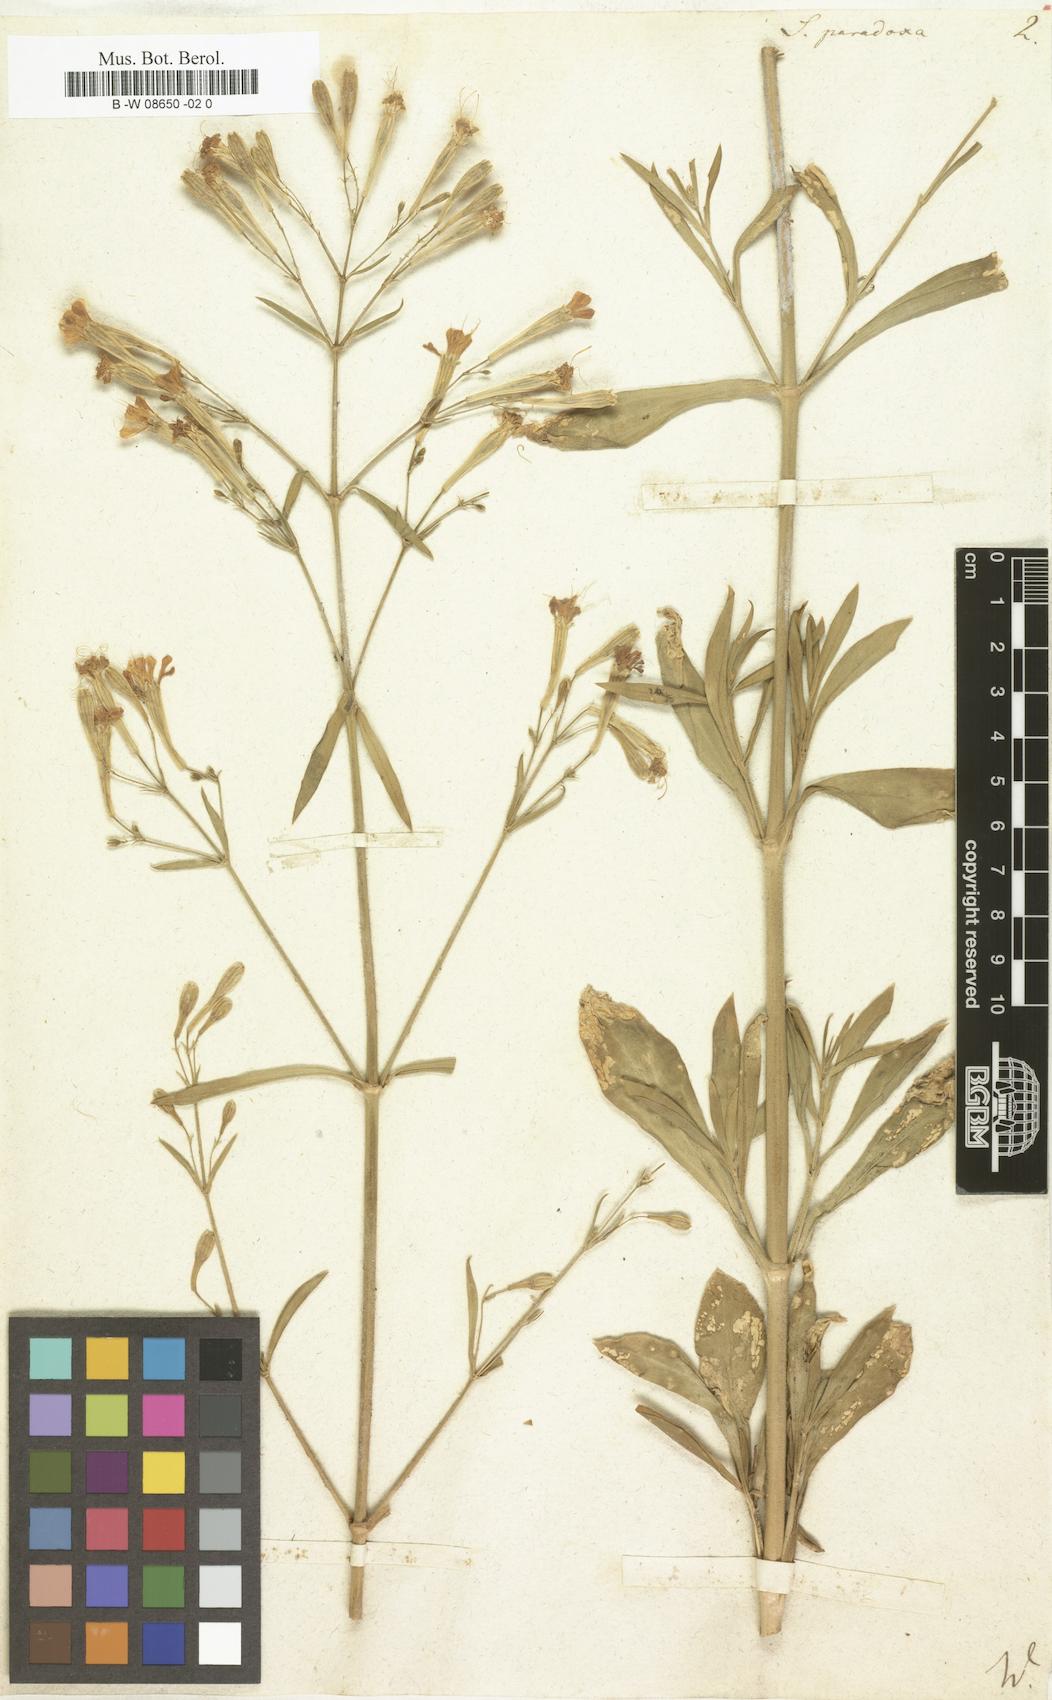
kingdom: Plantae
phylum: Tracheophyta
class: Magnoliopsida
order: Caryophyllales
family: Caryophyllaceae
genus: Silene
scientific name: Silene paradoxa
